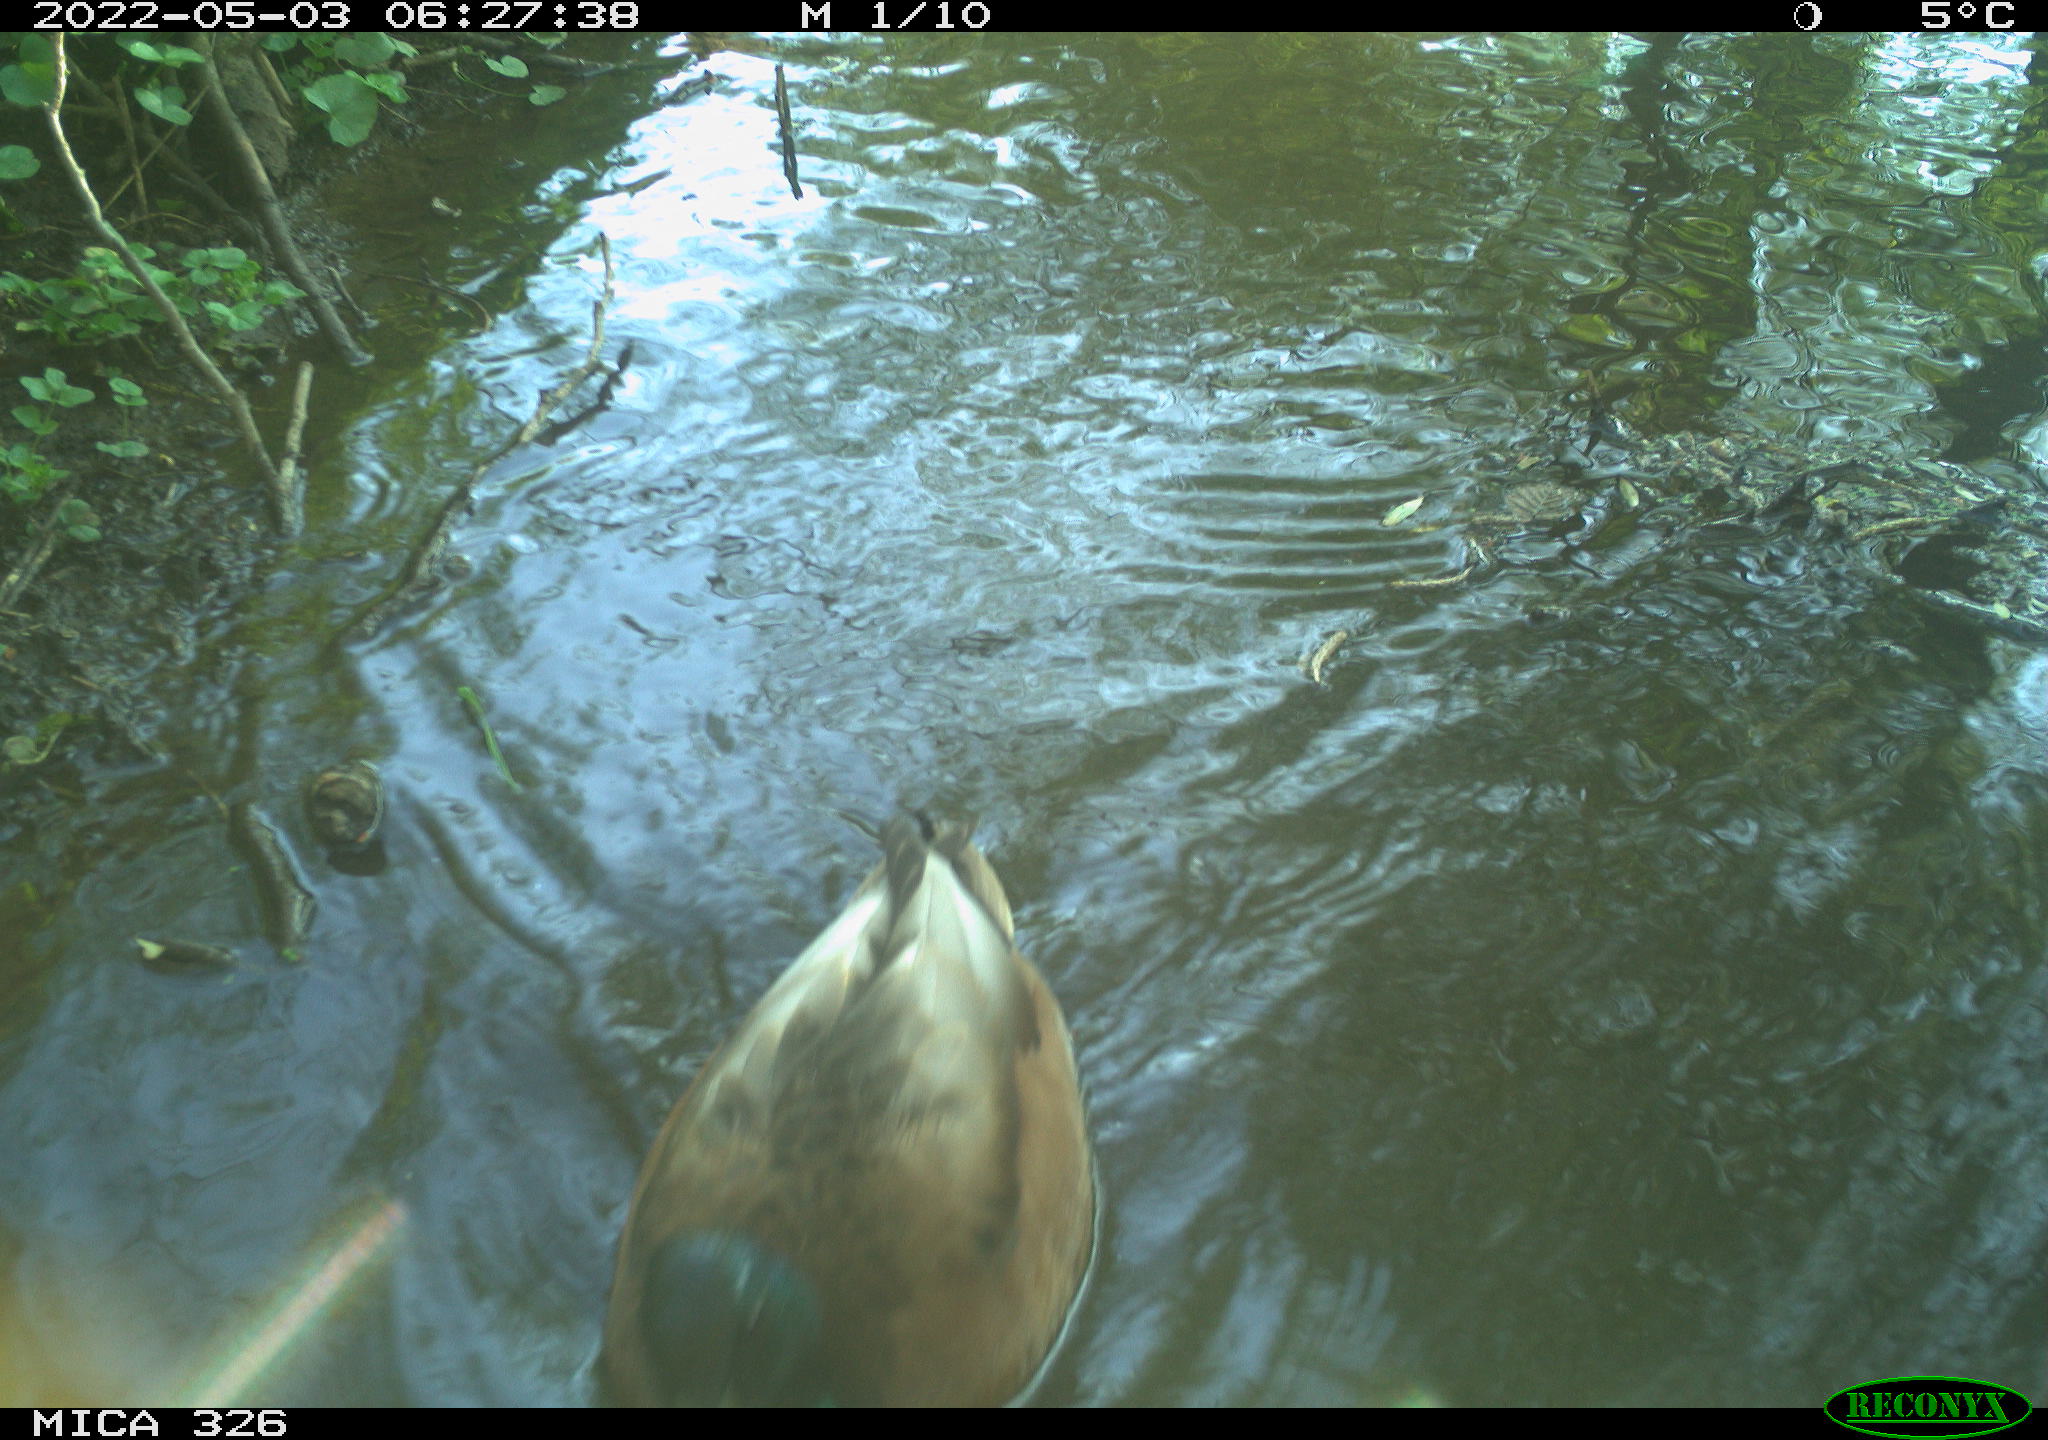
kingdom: Animalia
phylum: Chordata
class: Aves
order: Anseriformes
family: Anatidae
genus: Anas
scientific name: Anas platyrhynchos
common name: Mallard
